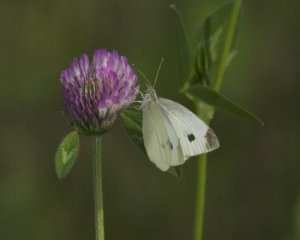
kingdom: Animalia
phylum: Arthropoda
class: Insecta
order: Lepidoptera
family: Pieridae
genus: Pieris
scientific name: Pieris rapae
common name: Cabbage White
